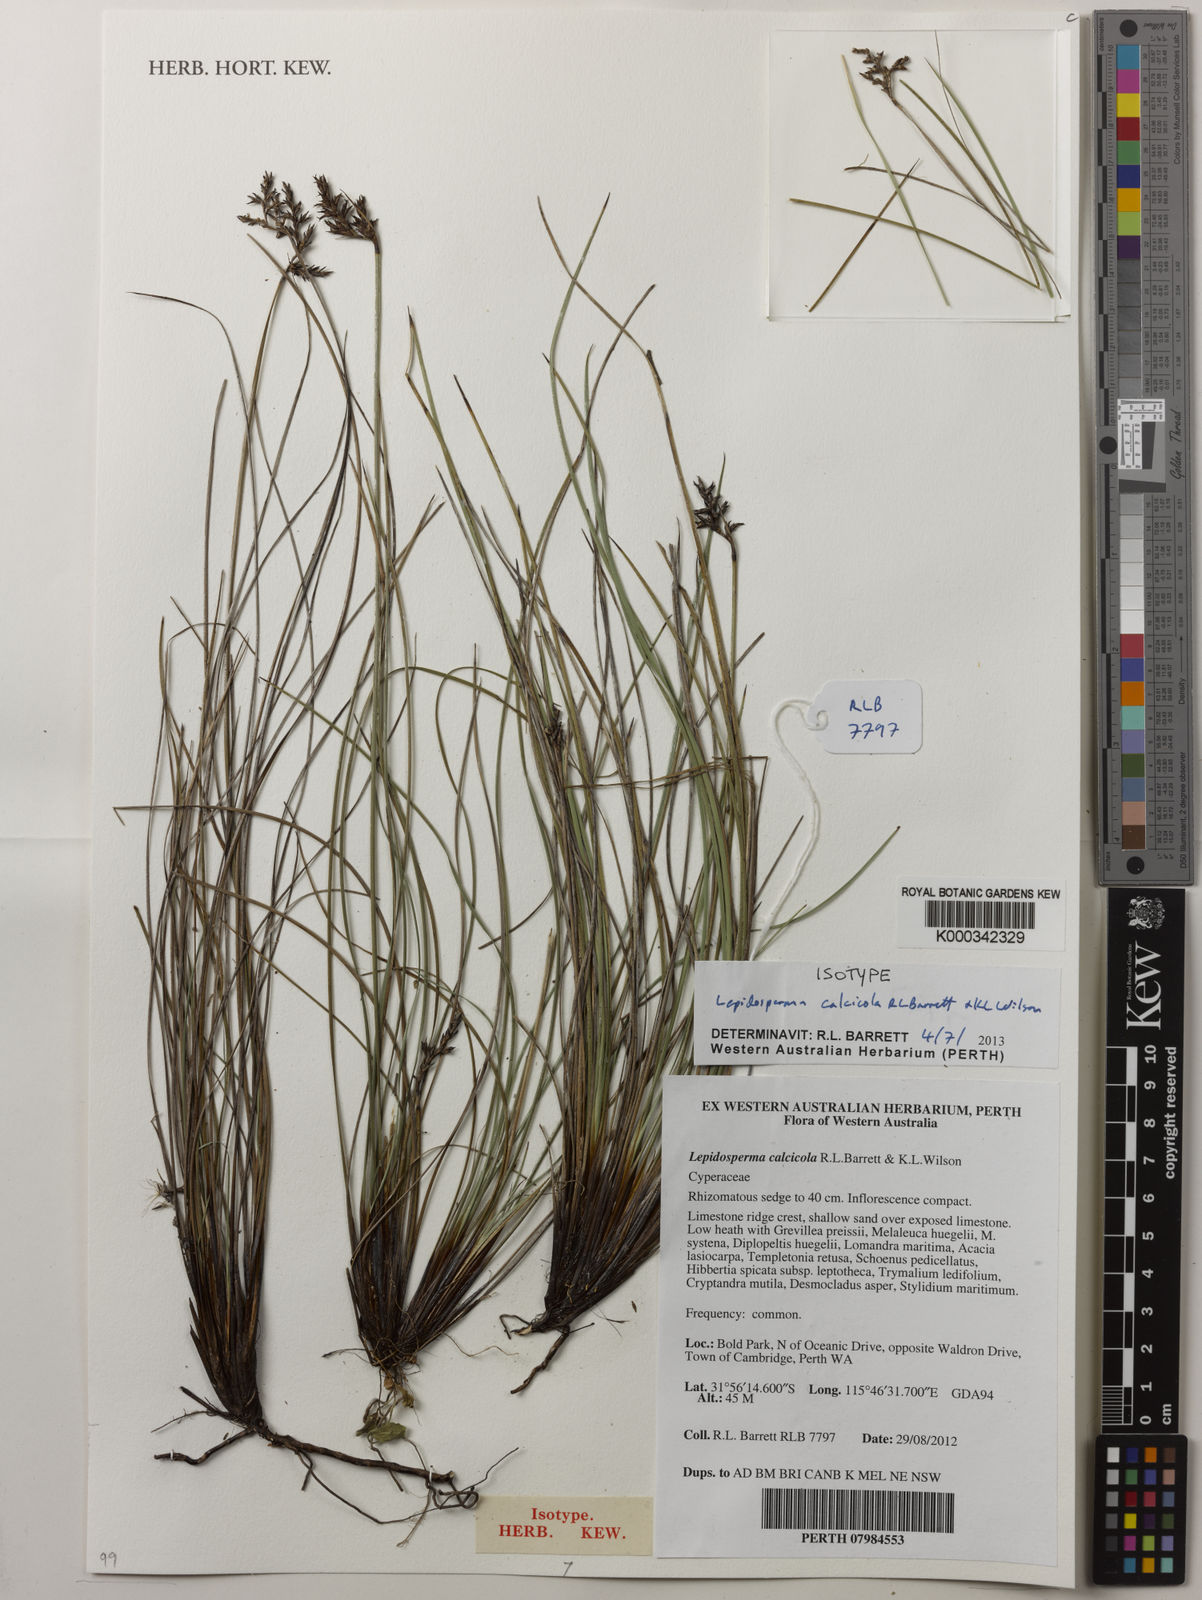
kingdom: Plantae
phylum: Tracheophyta
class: Liliopsida
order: Poales
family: Cyperaceae
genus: Lepidosperma
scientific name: Lepidosperma calcicola
